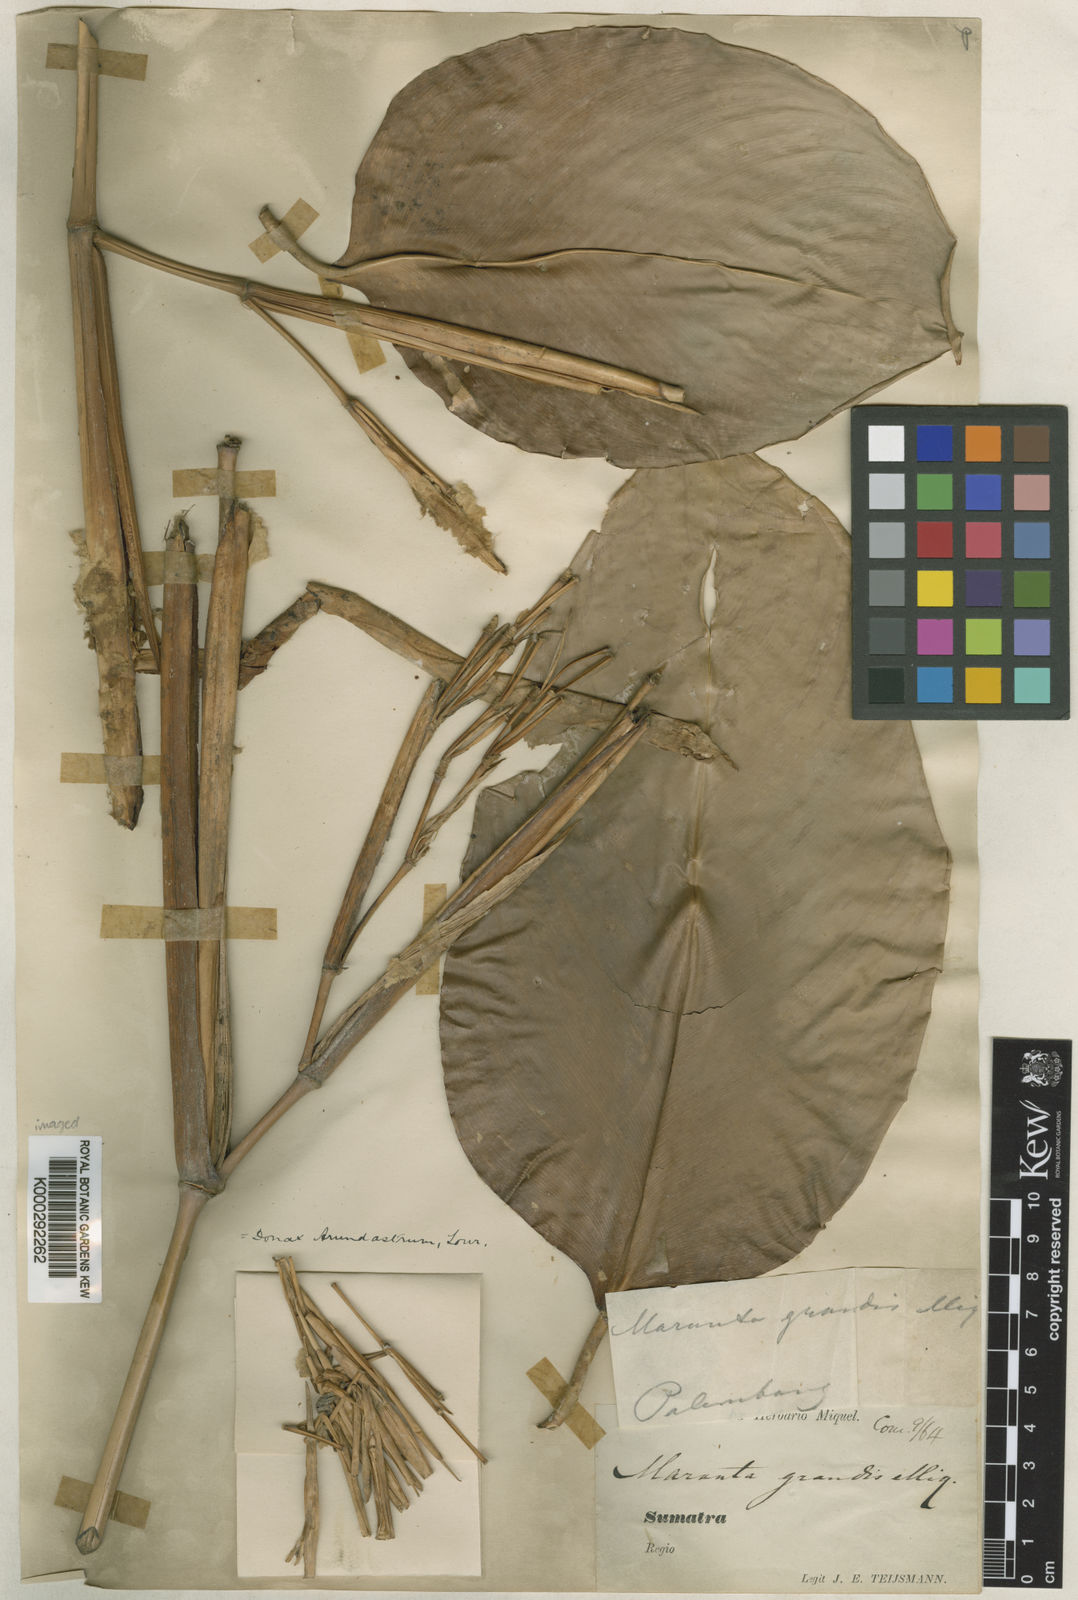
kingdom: Plantae
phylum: Tracheophyta
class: Liliopsida
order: Zingiberales
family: Marantaceae
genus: Donax
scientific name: Donax canniformis
